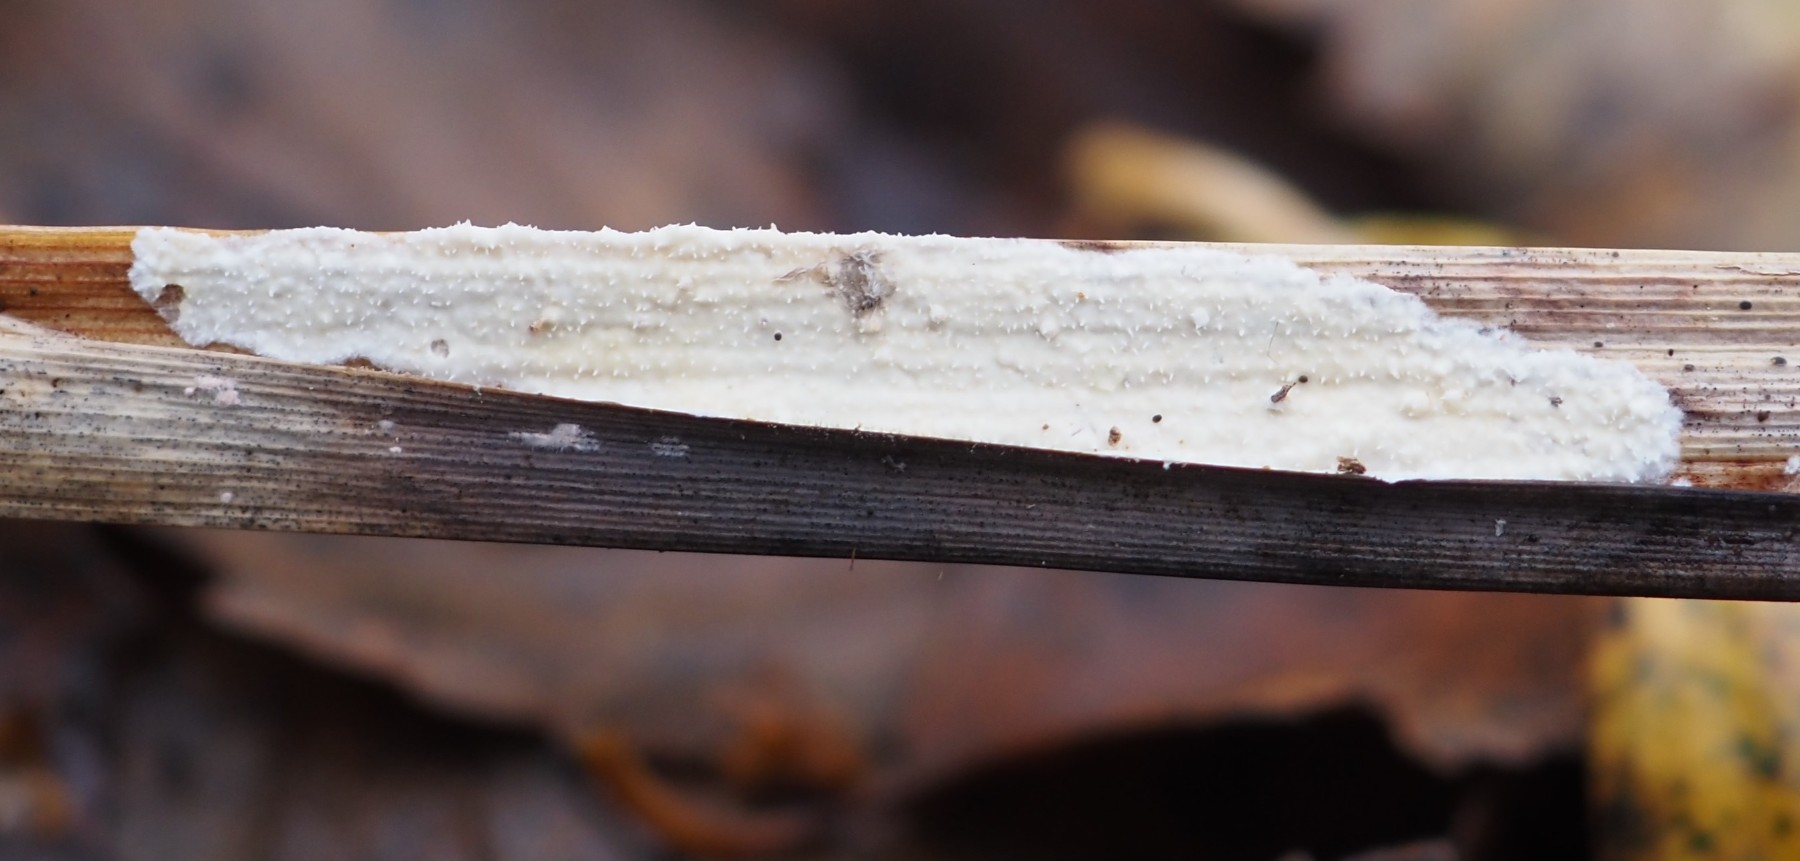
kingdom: Fungi
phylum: Basidiomycota
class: Agaricomycetes
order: Polyporales
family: Polyporaceae
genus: Epithele
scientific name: Epithele typhae
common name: starpig
